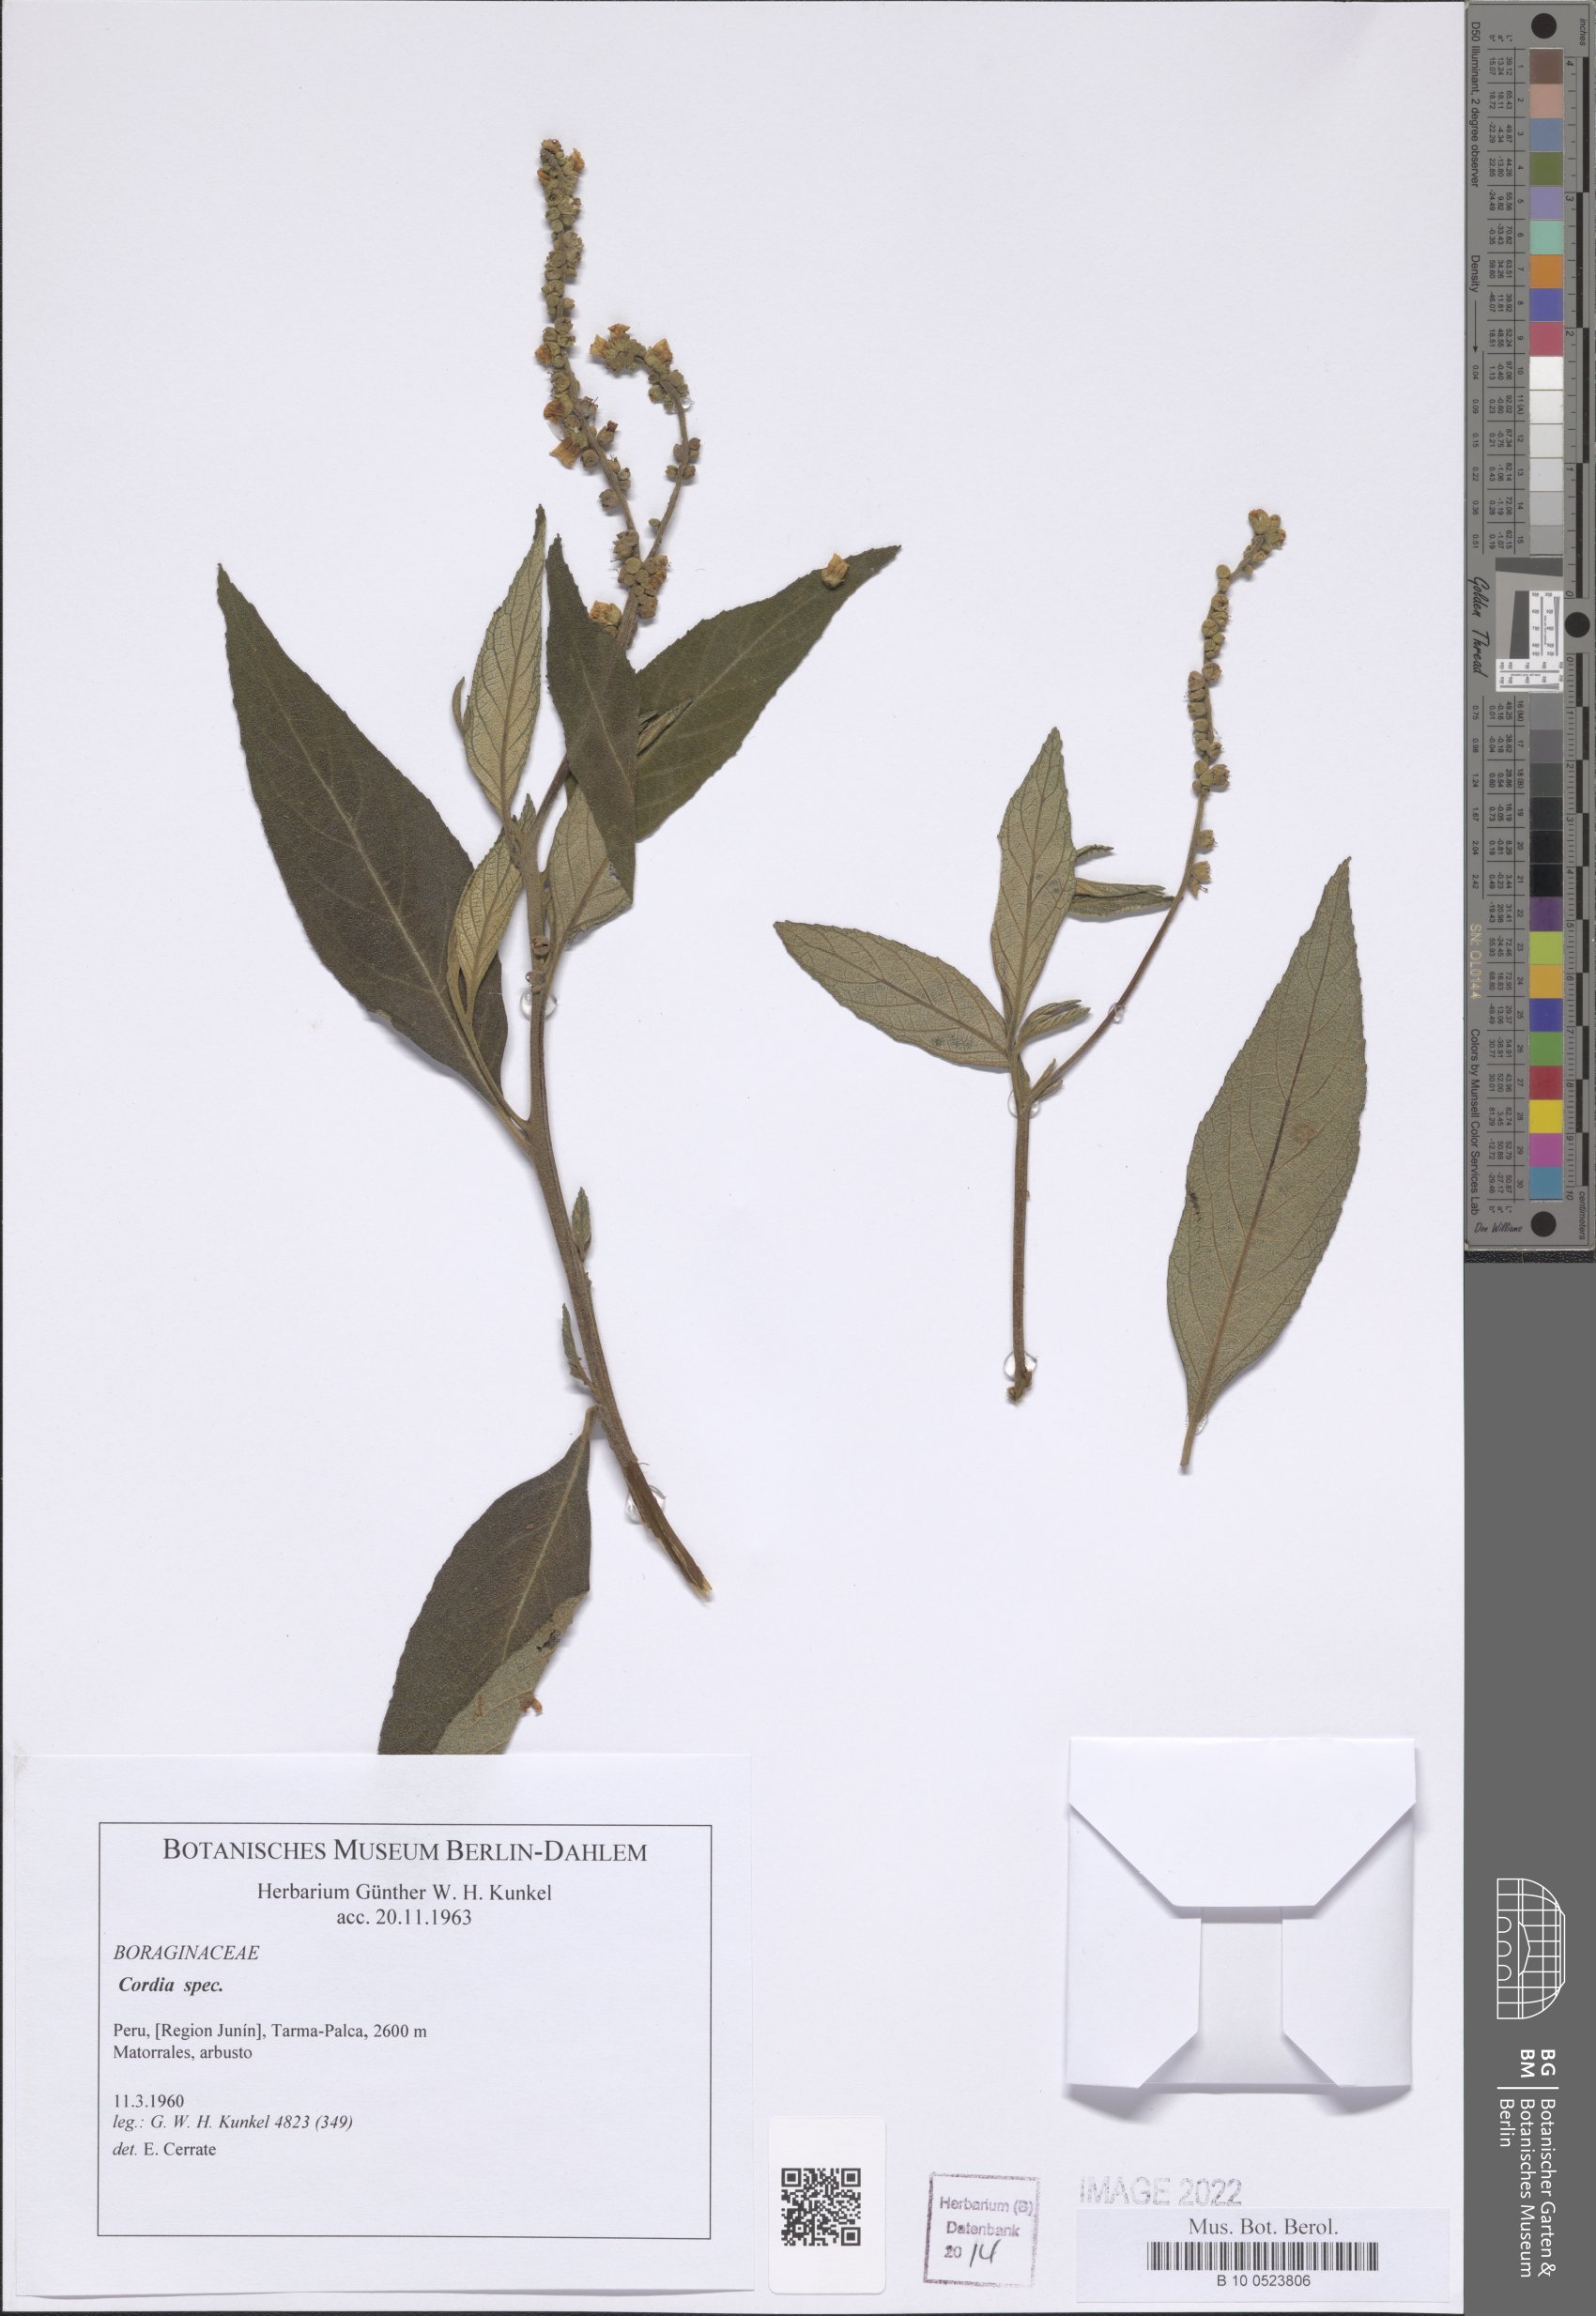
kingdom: Plantae
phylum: Tracheophyta
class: Magnoliopsida
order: Boraginales
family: Cordiaceae
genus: Cordia
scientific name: Cordia
